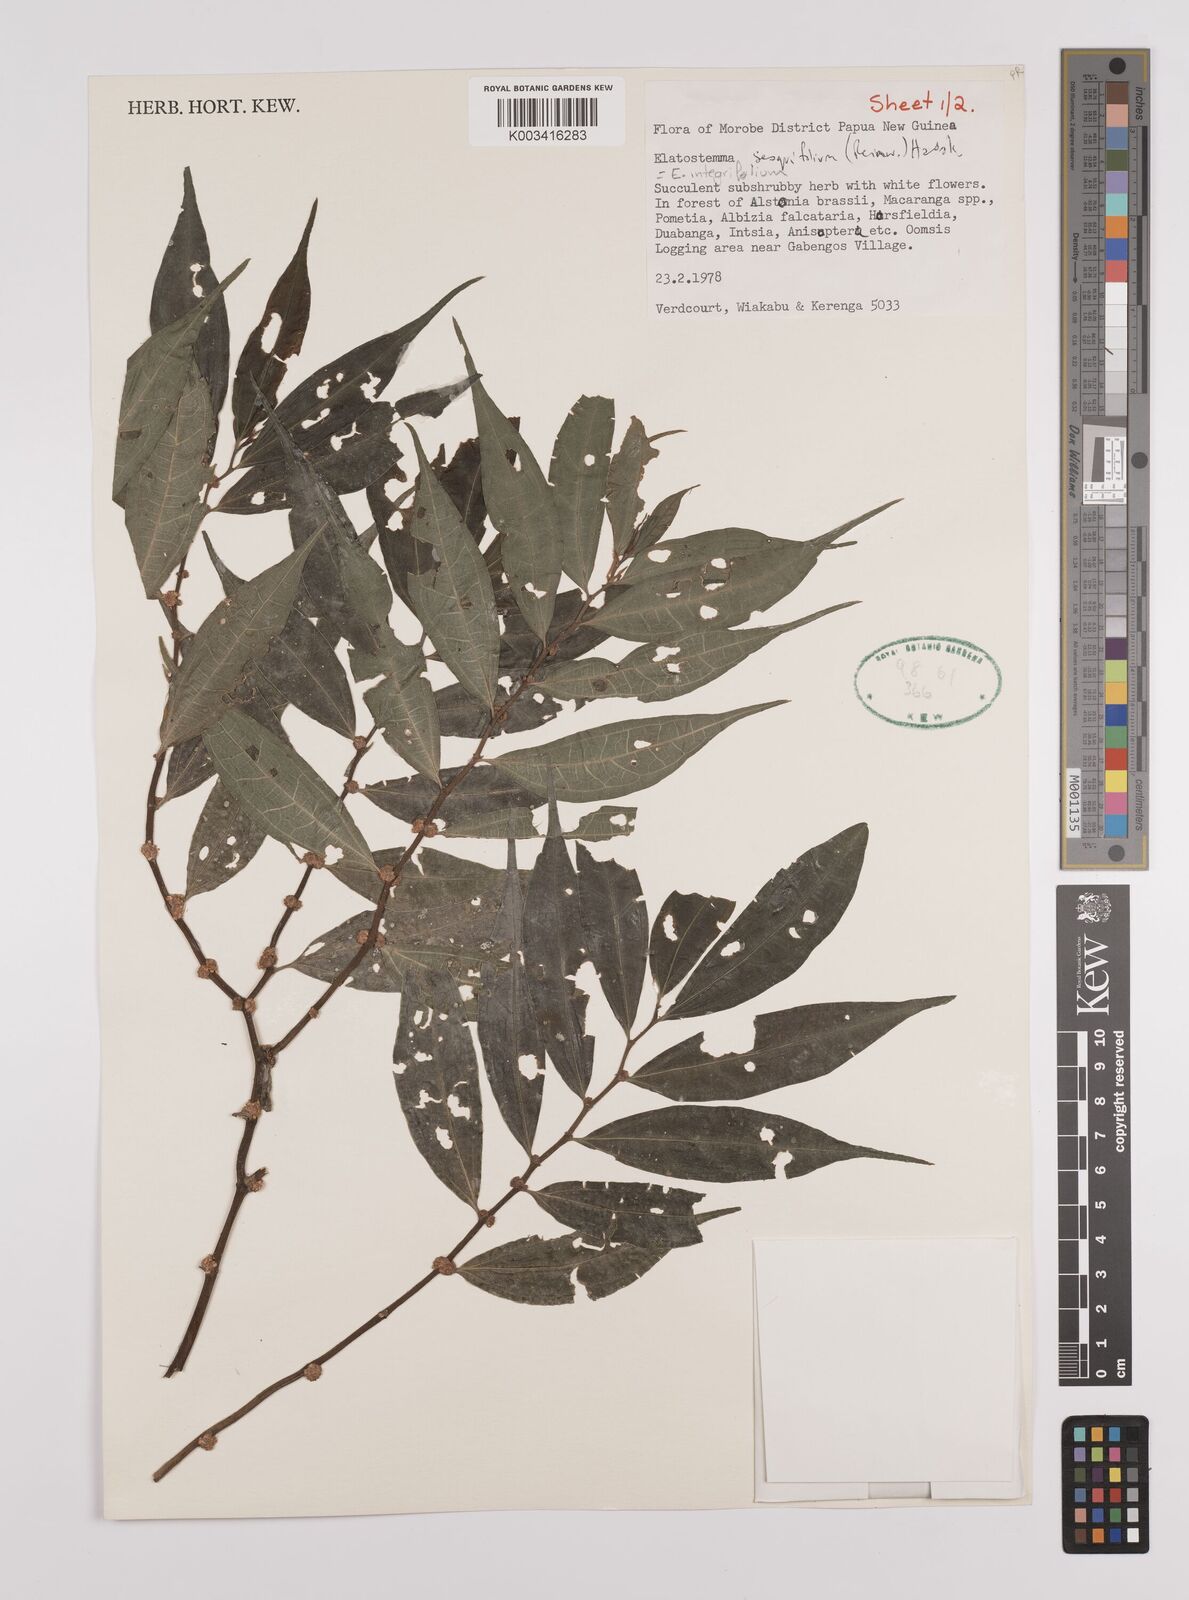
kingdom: Plantae
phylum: Tracheophyta
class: Magnoliopsida
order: Rosales
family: Urticaceae
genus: Elatostema
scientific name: Elatostema integrifolium
